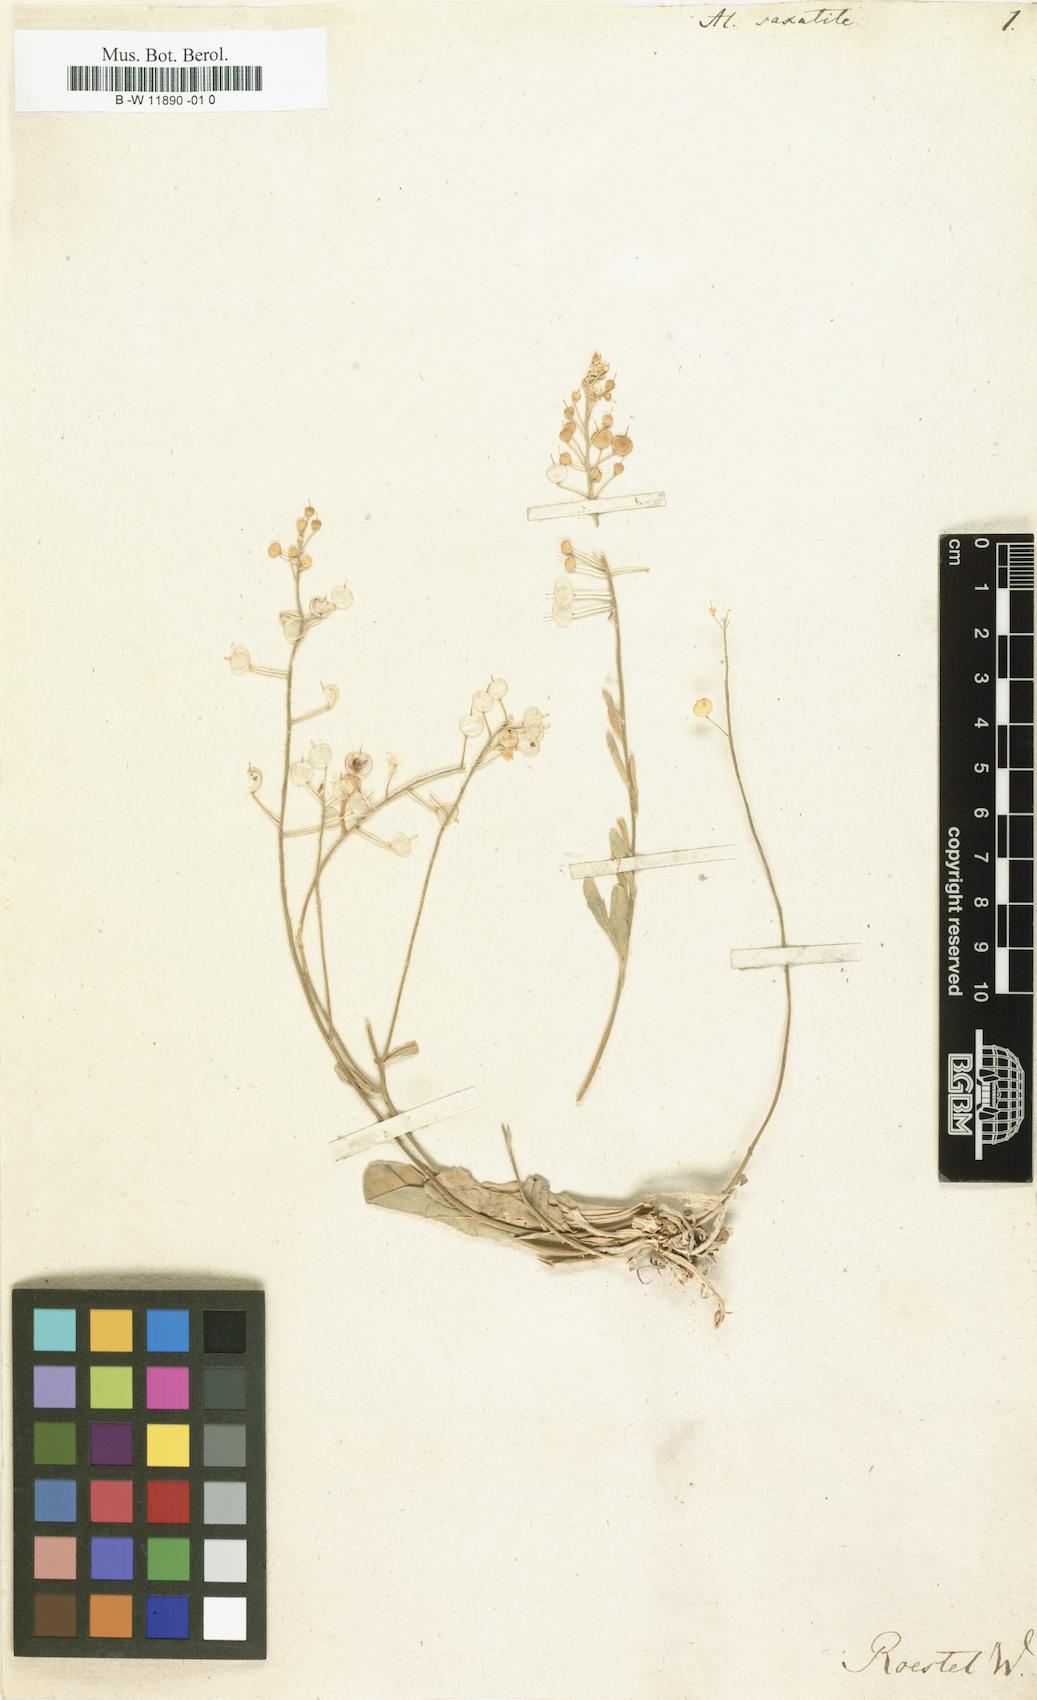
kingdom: Plantae
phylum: Tracheophyta
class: Magnoliopsida
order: Brassicales
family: Brassicaceae
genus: Aurinia
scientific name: Aurinia saxatilis
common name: Golden-tuft alyssum
